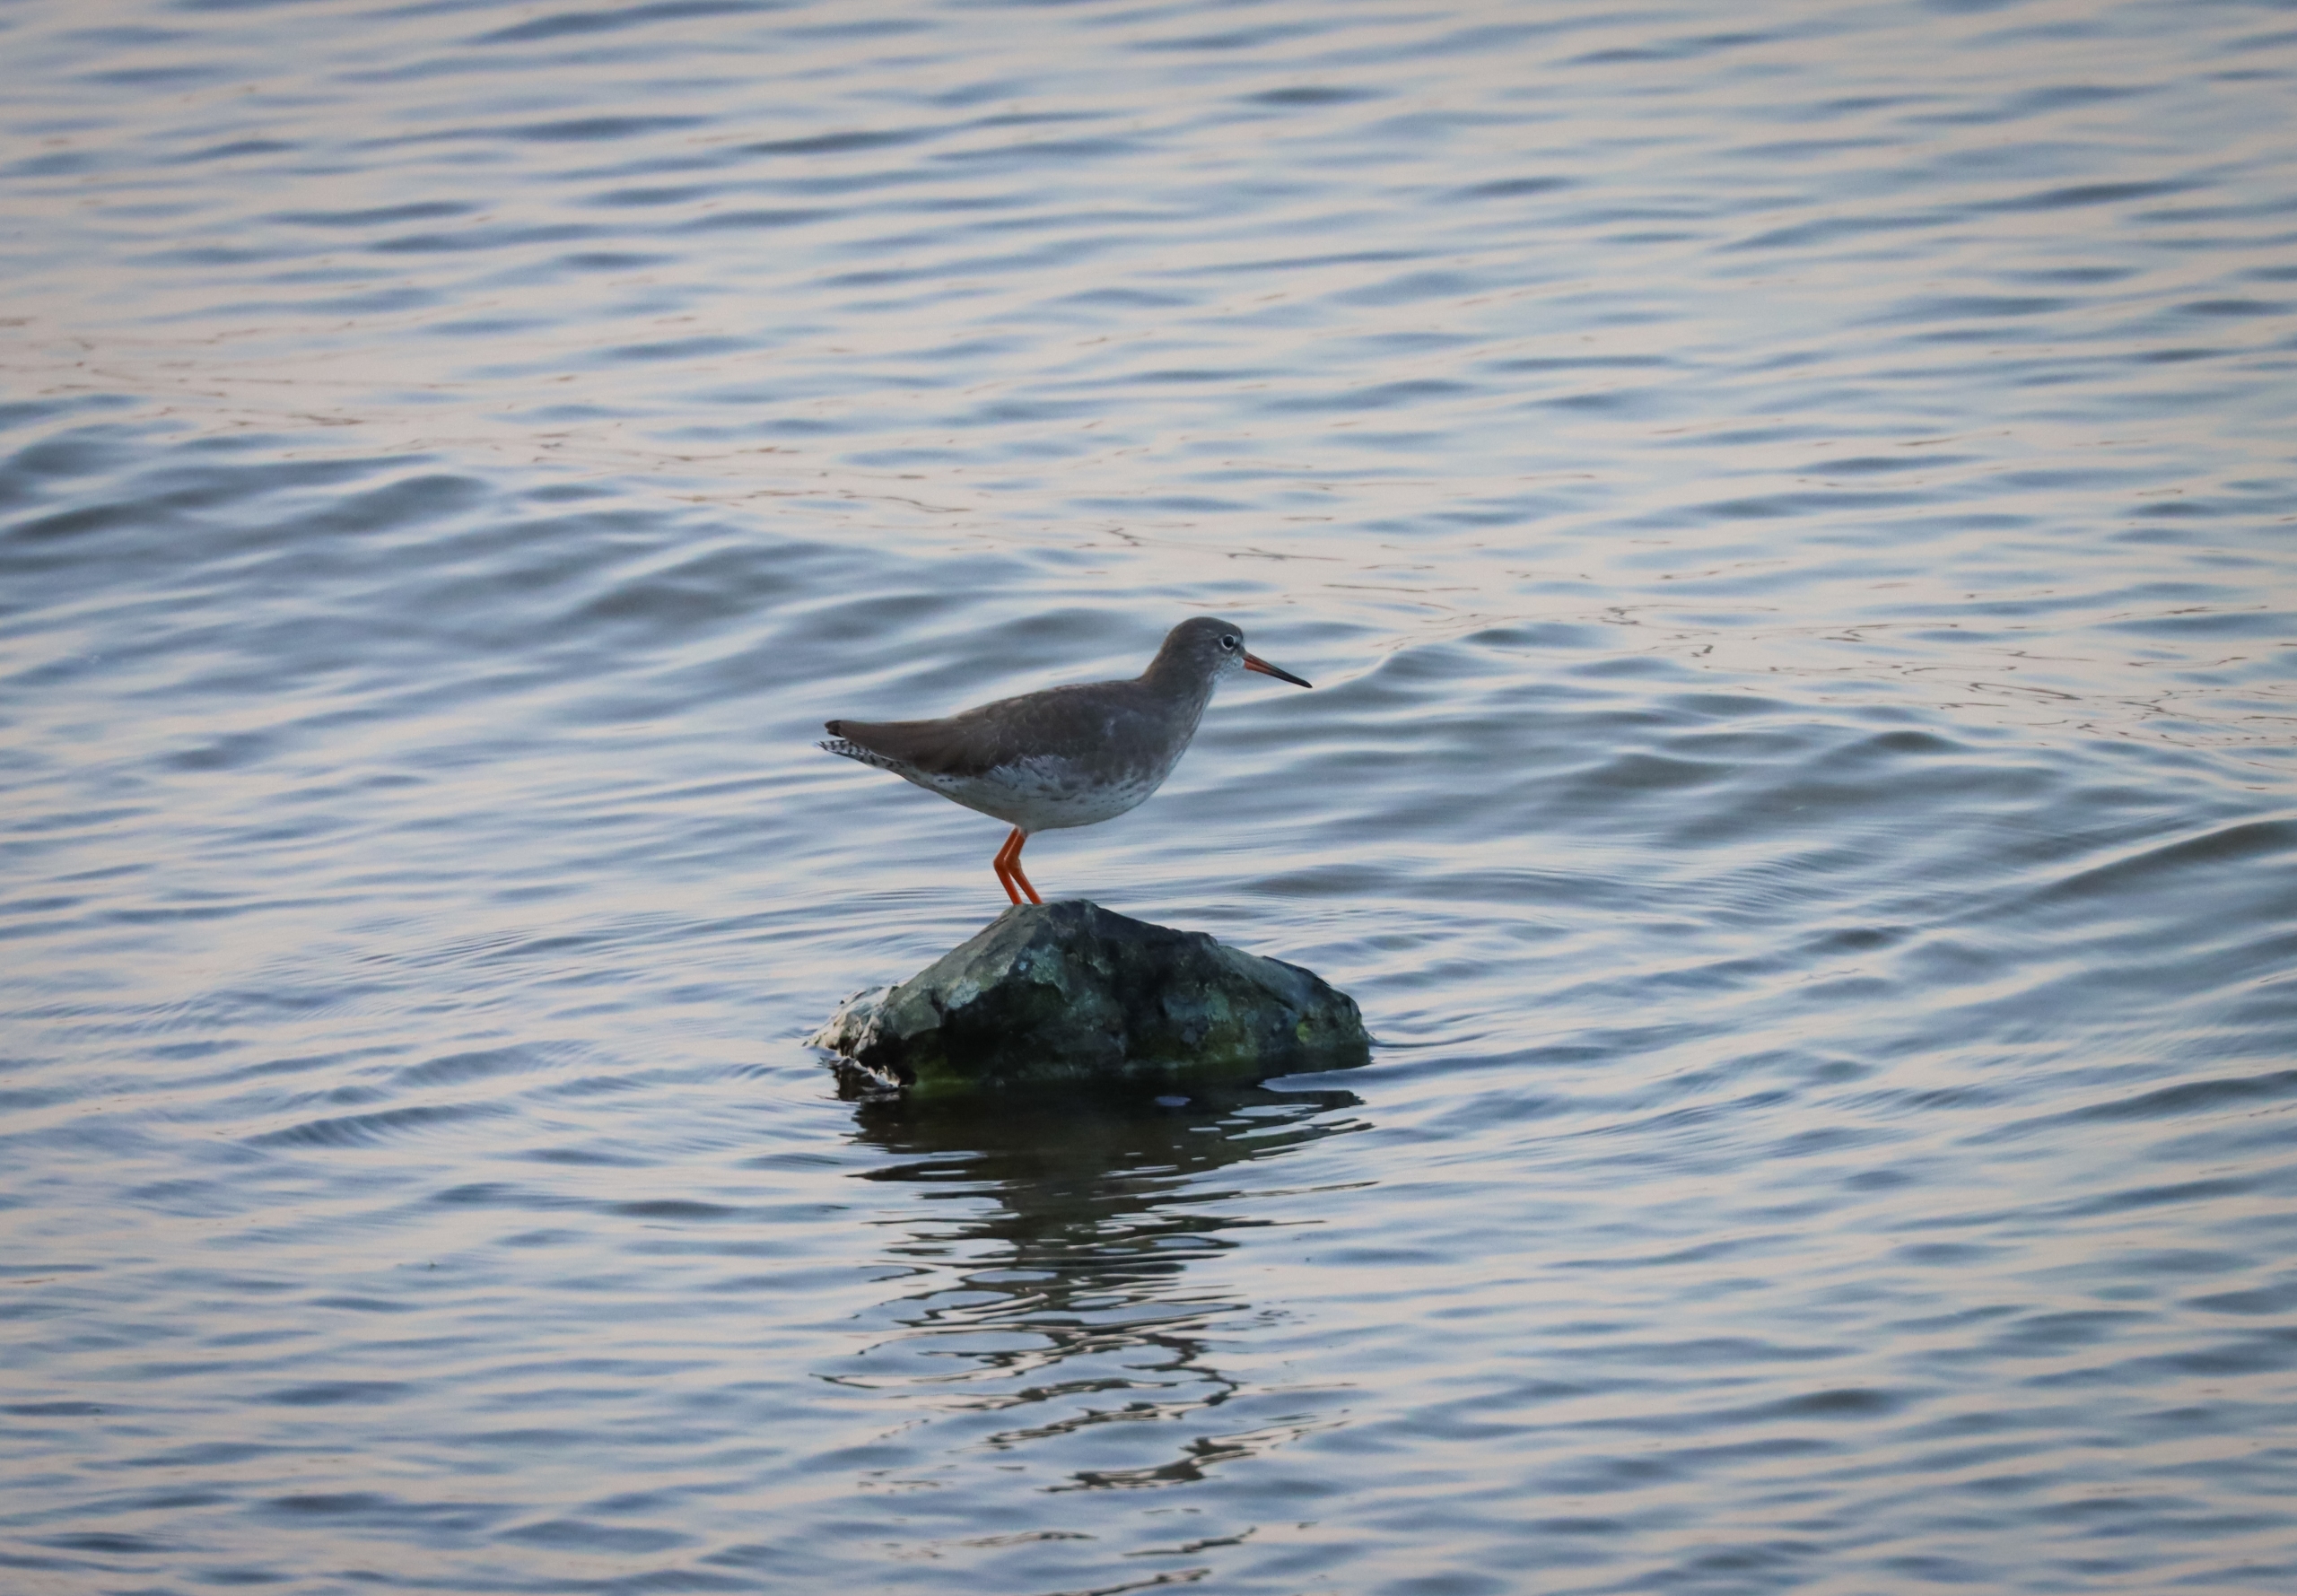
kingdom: Animalia
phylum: Chordata
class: Aves
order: Charadriiformes
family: Scolopacidae
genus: Tringa
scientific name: Tringa totanus
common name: Rødben
